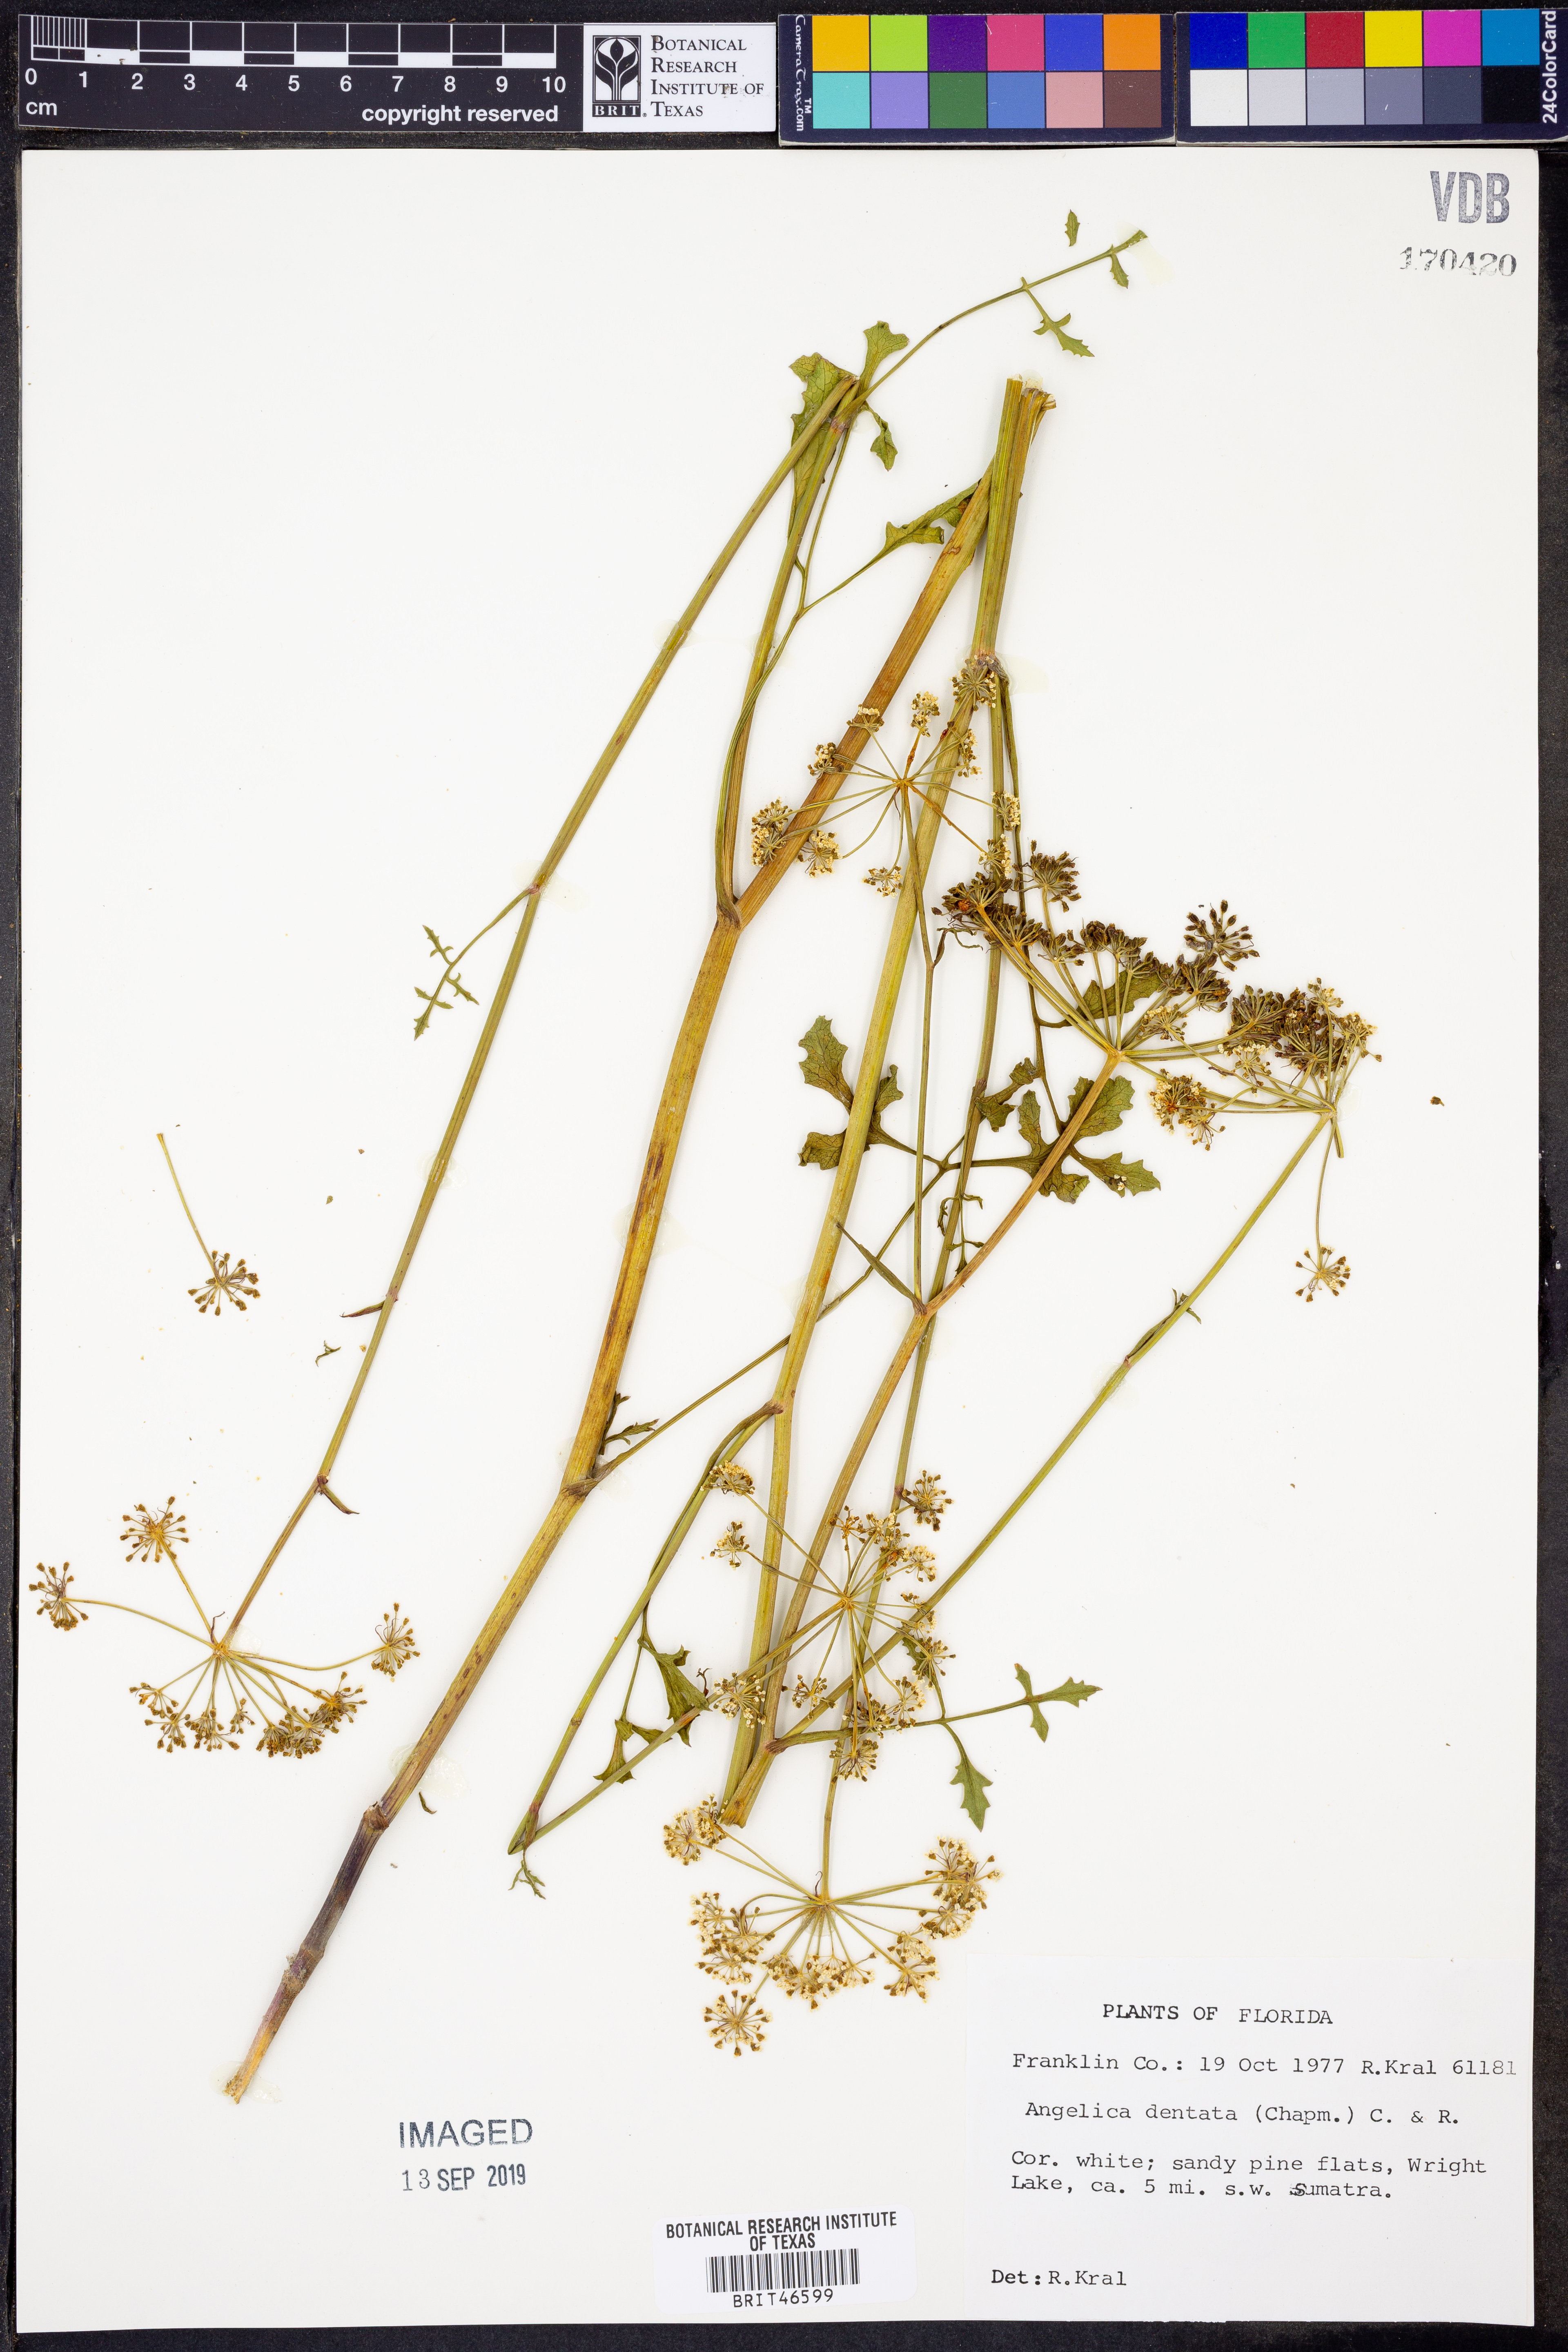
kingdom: Plantae
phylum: Tracheophyta
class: Magnoliopsida
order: Apiales
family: Apiaceae
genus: Angelica
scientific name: Angelica venenosa
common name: Hairy angelica
